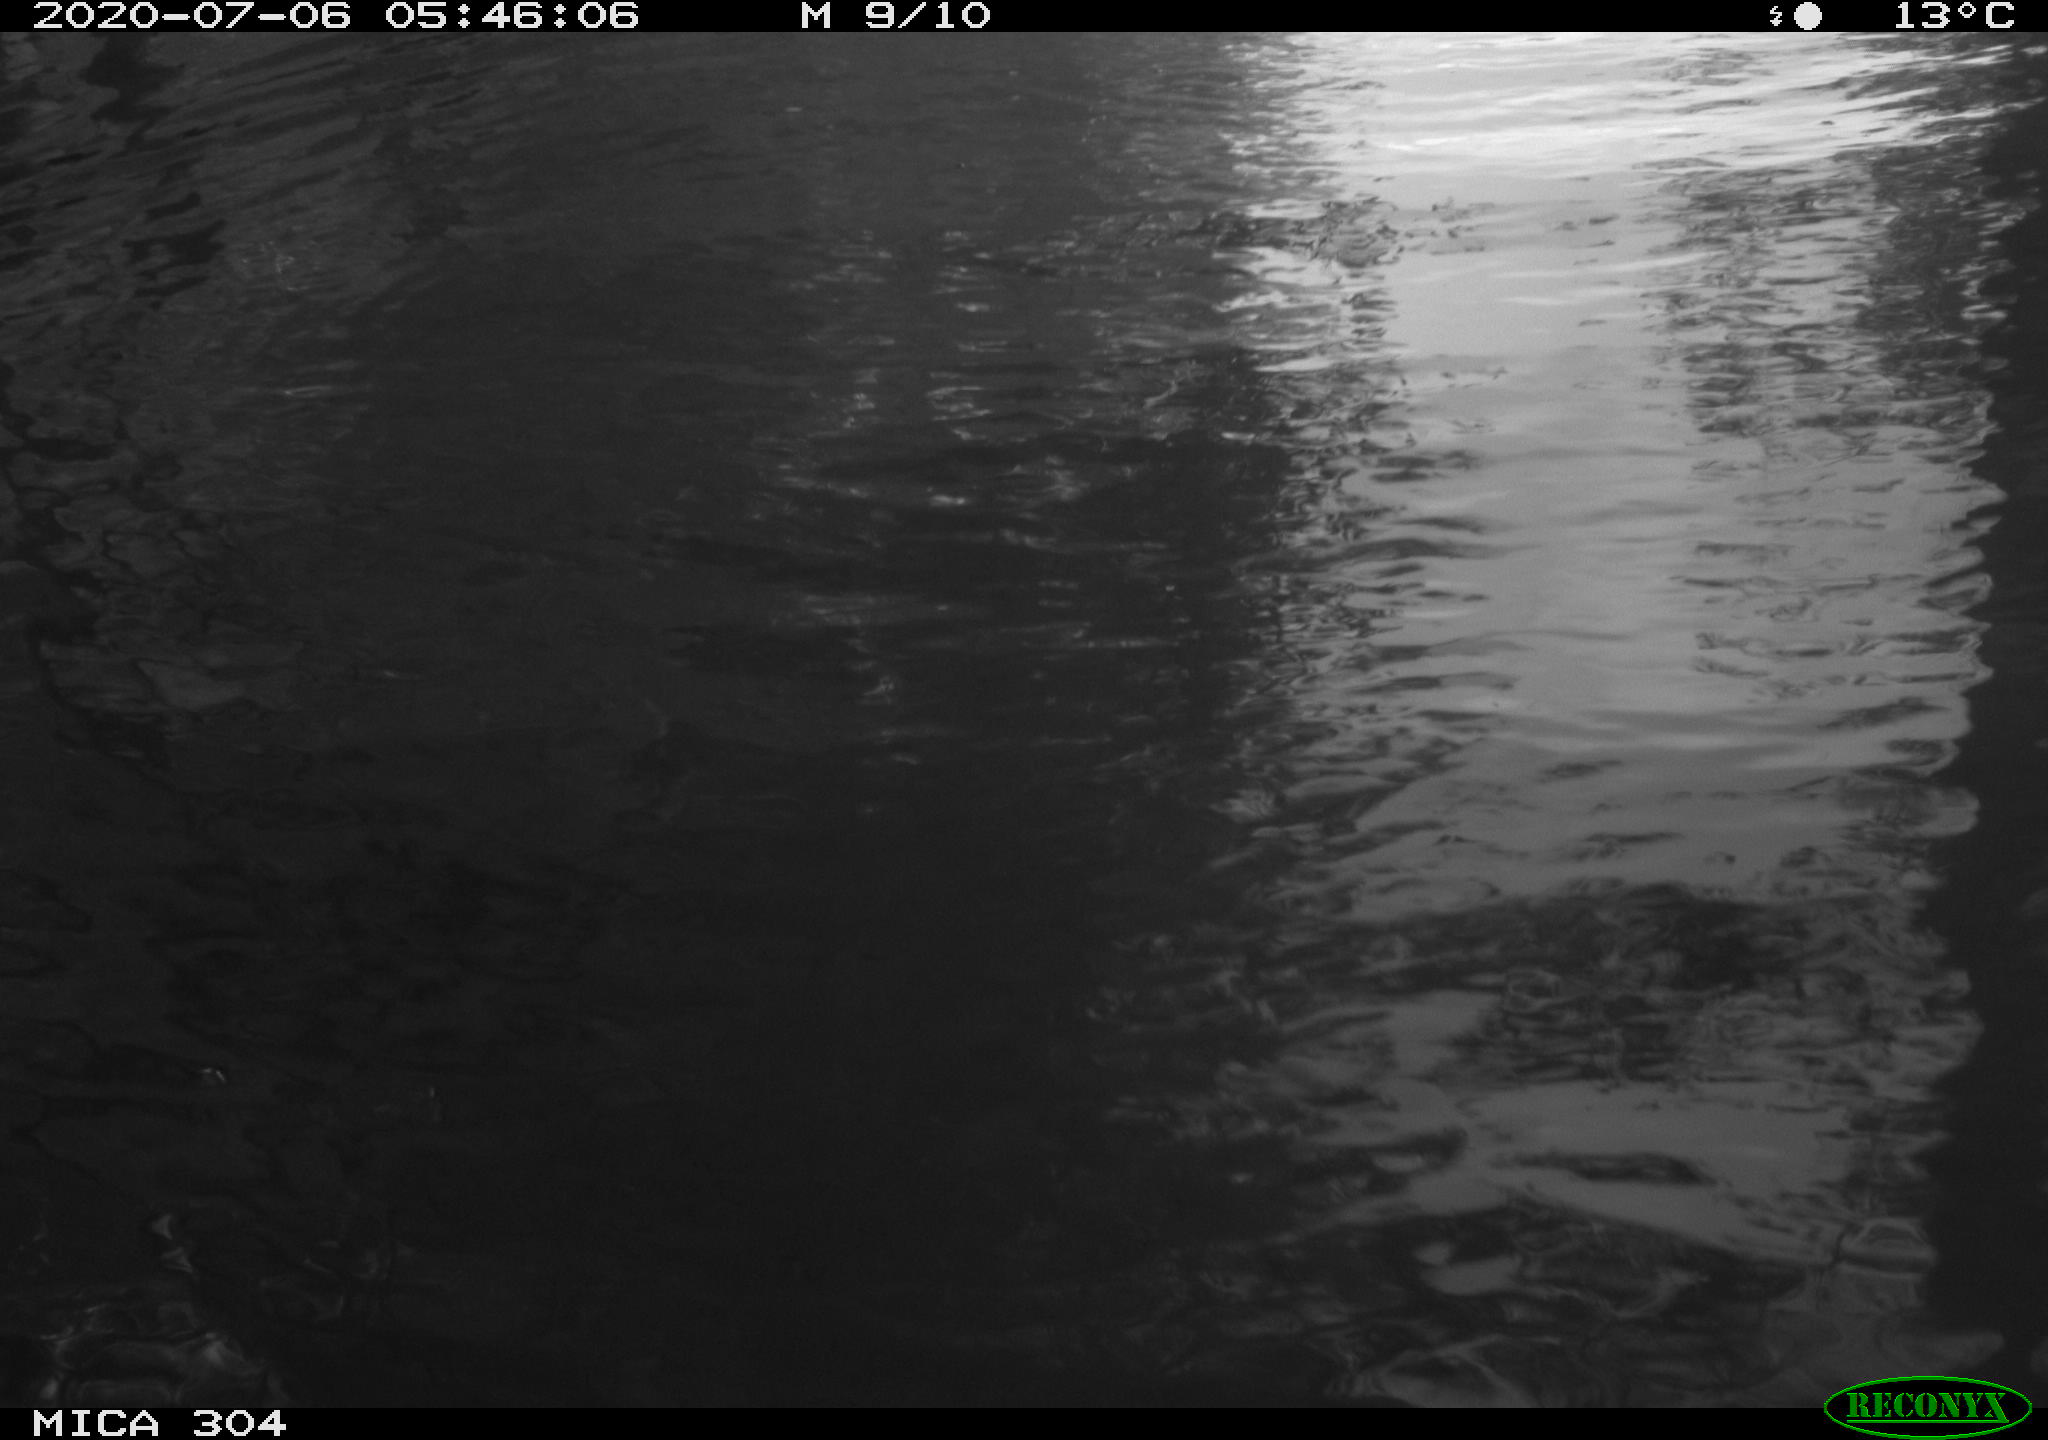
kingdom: Animalia
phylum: Chordata
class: Aves
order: Anseriformes
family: Anatidae
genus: Anas
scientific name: Anas platyrhynchos
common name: Mallard
